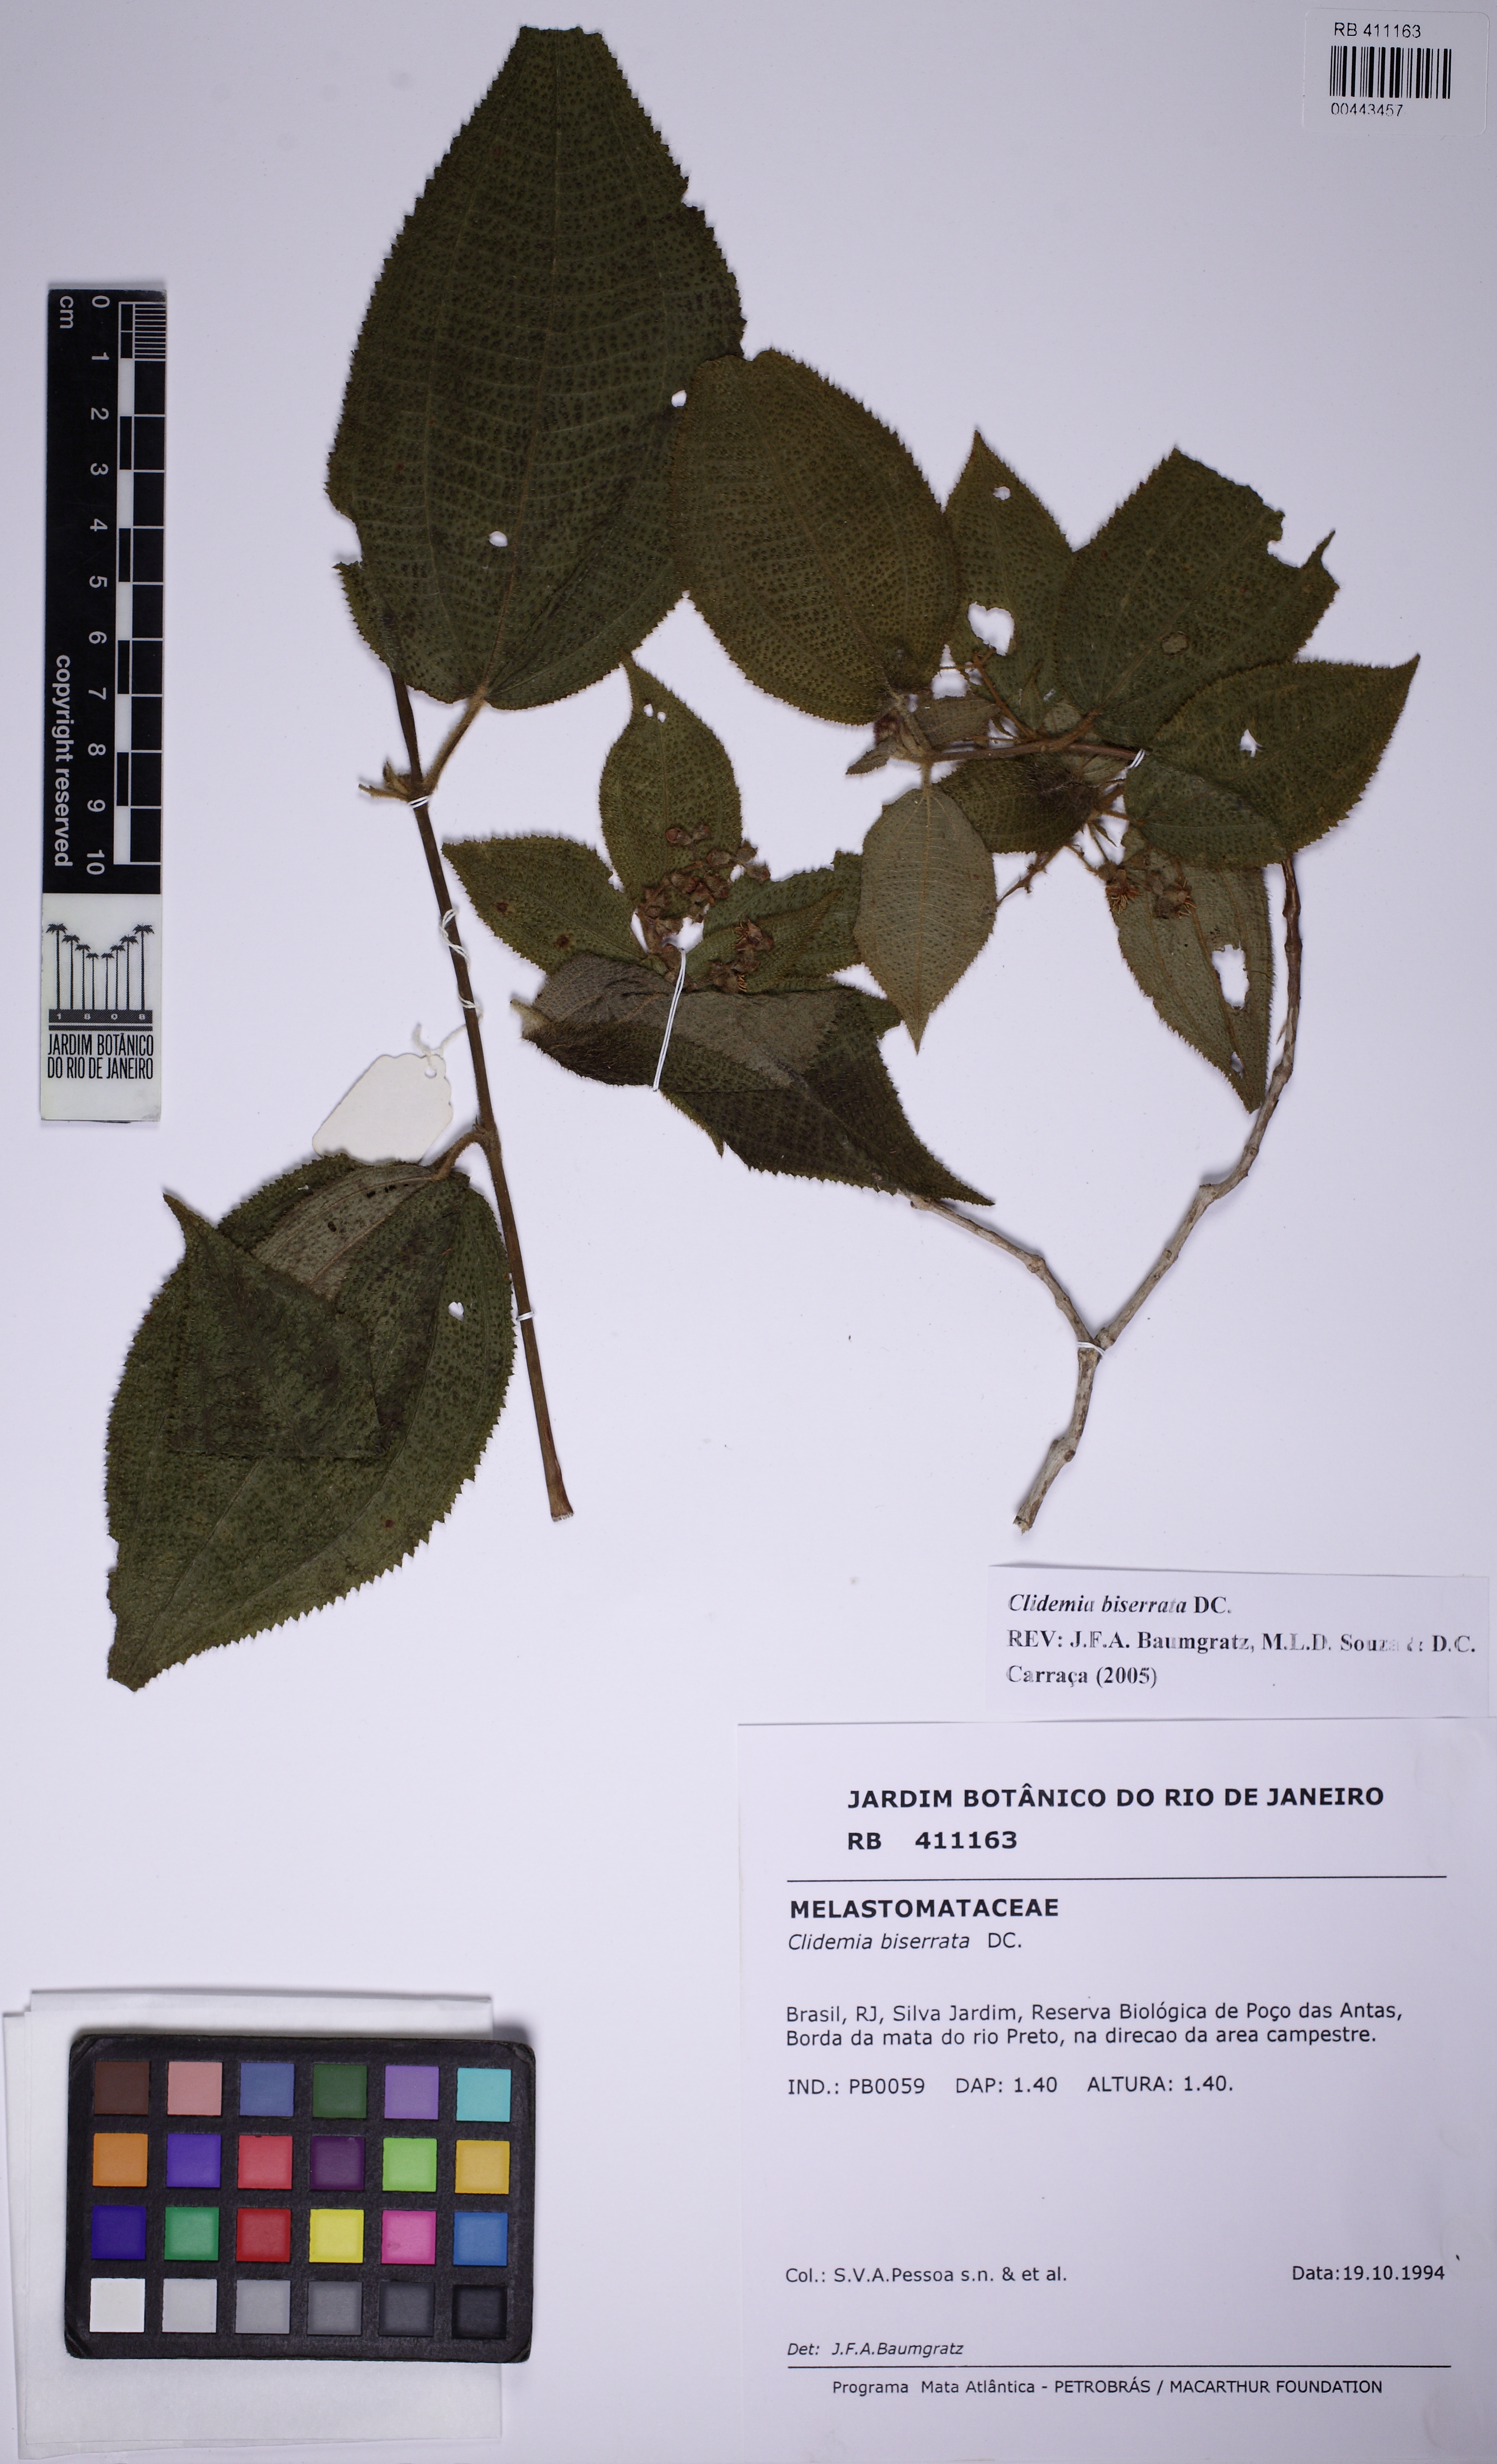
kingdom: Plantae
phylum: Tracheophyta
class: Magnoliopsida
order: Myrtales
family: Melastomataceae
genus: Miconia
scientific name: Miconia biserrata
